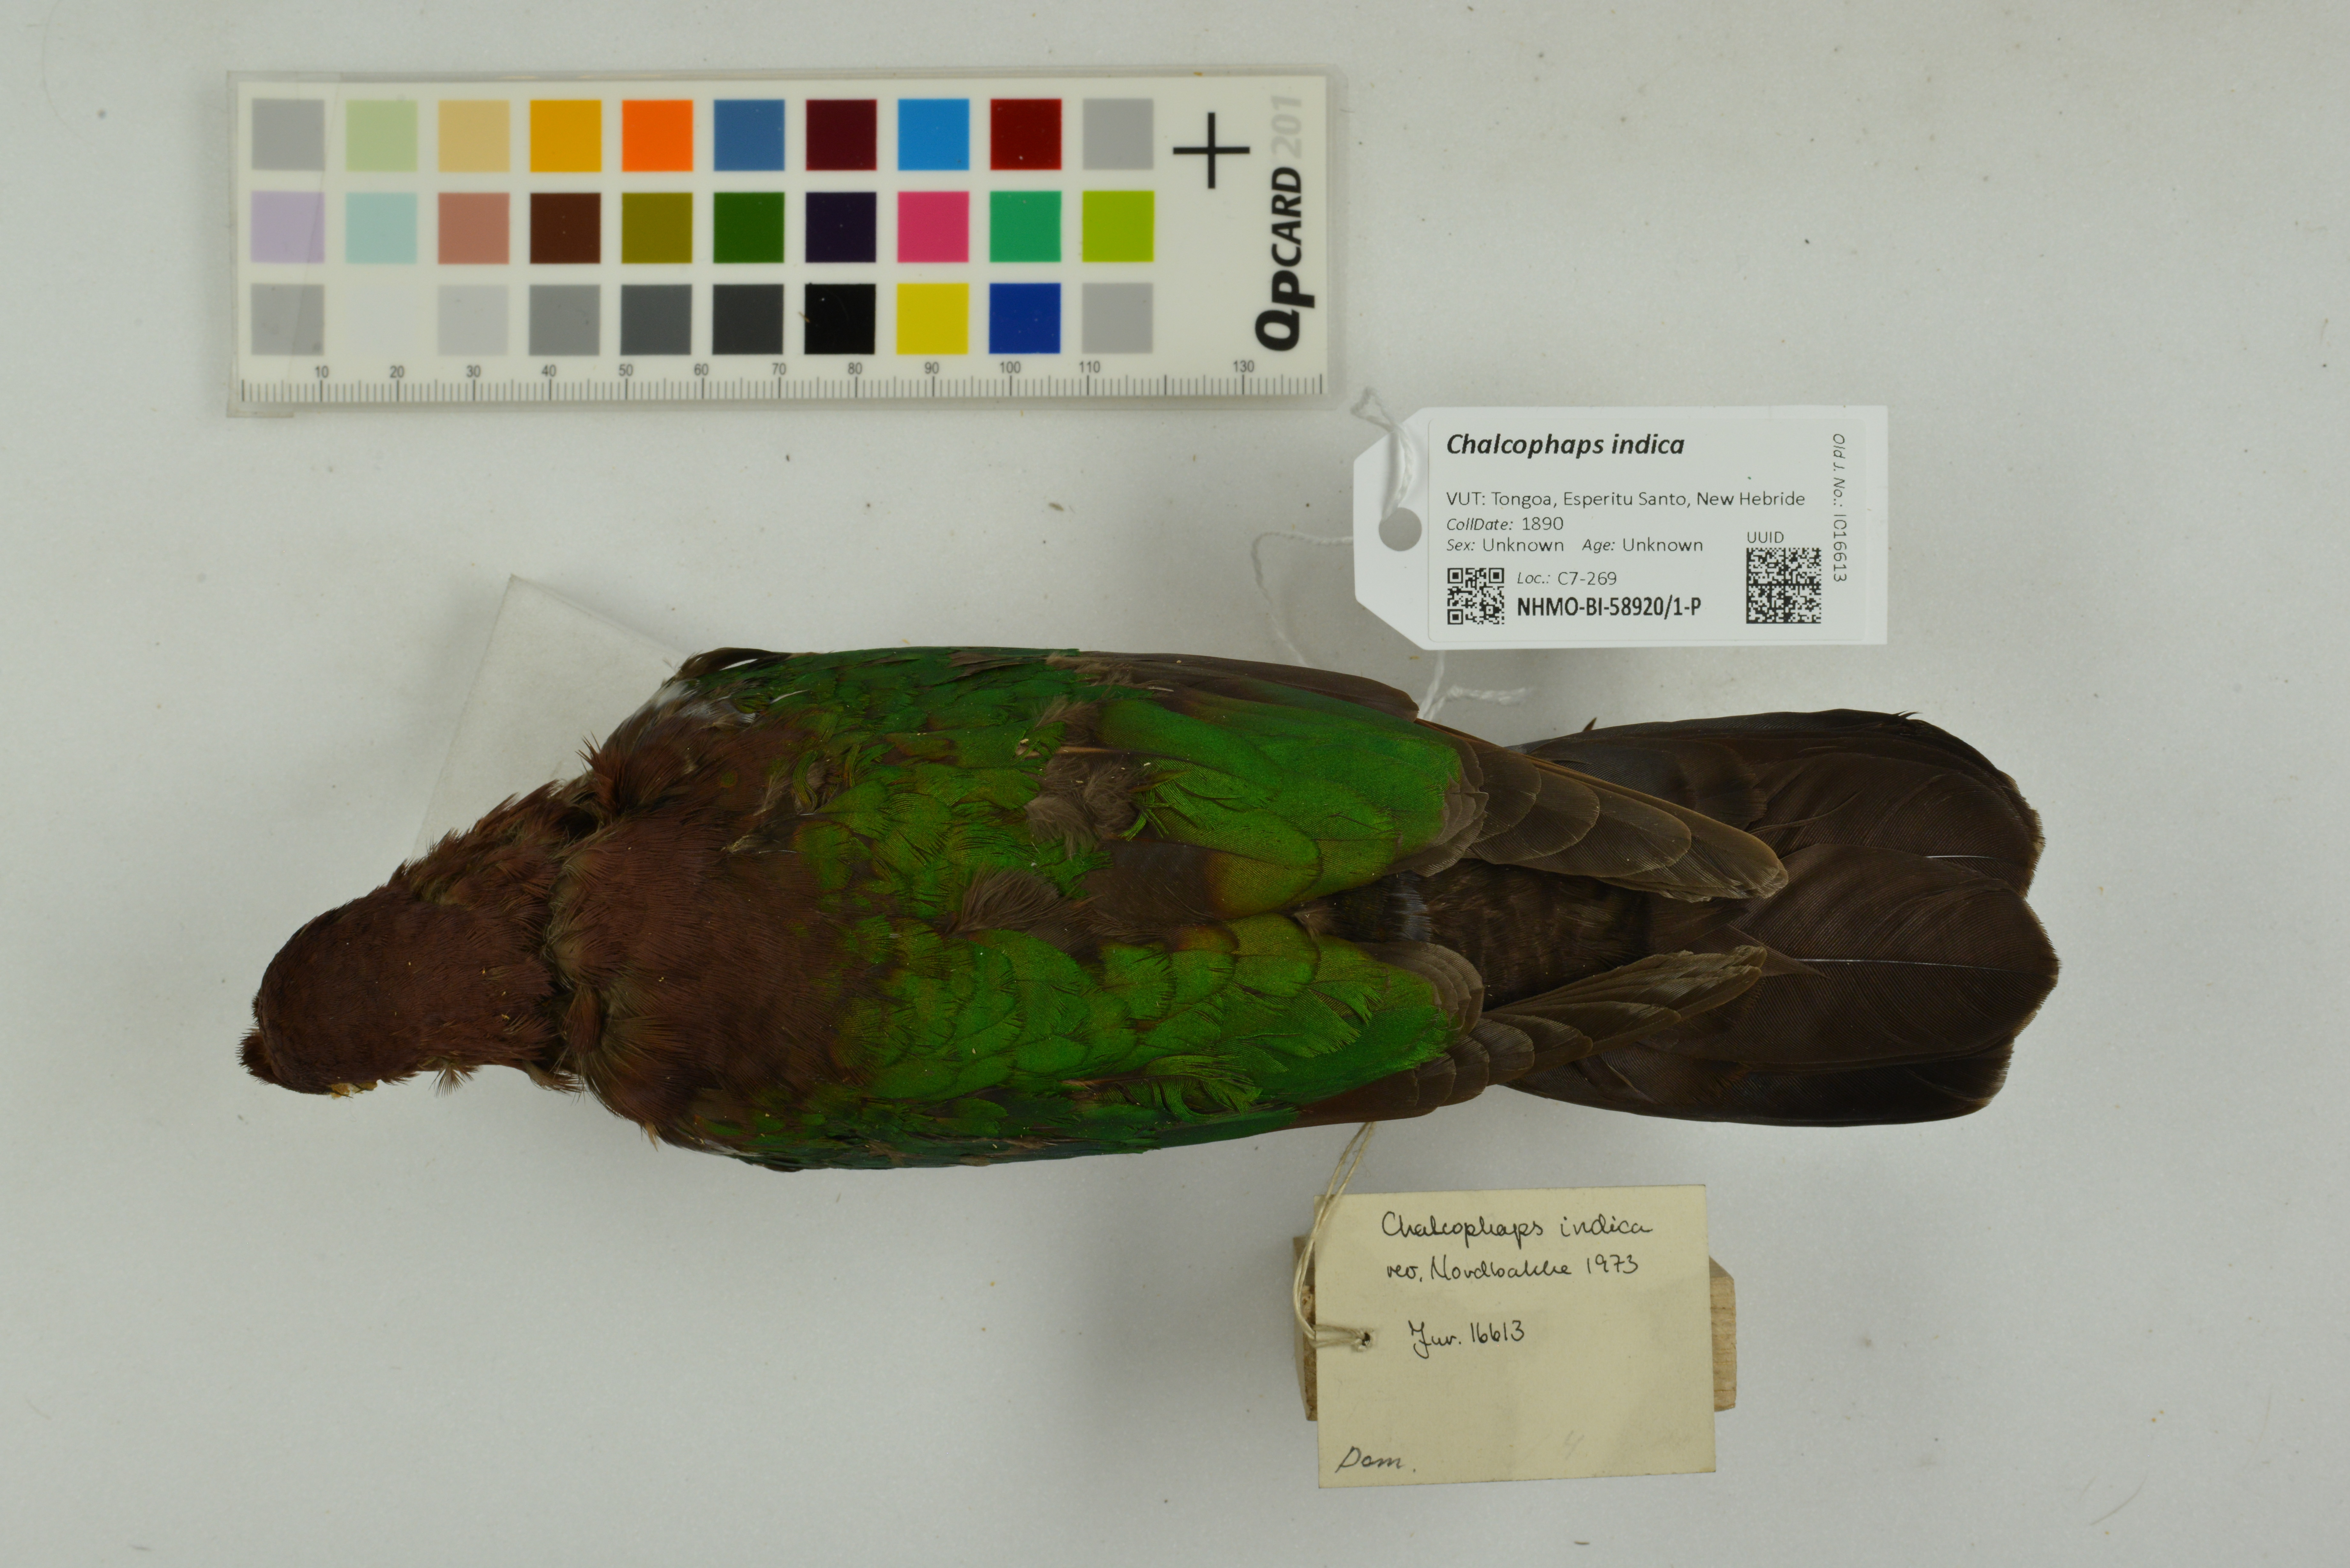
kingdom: Animalia
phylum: Chordata
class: Aves
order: Columbiformes
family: Columbidae
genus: Chalcophaps
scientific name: Chalcophaps indica
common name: Common emerald dove
